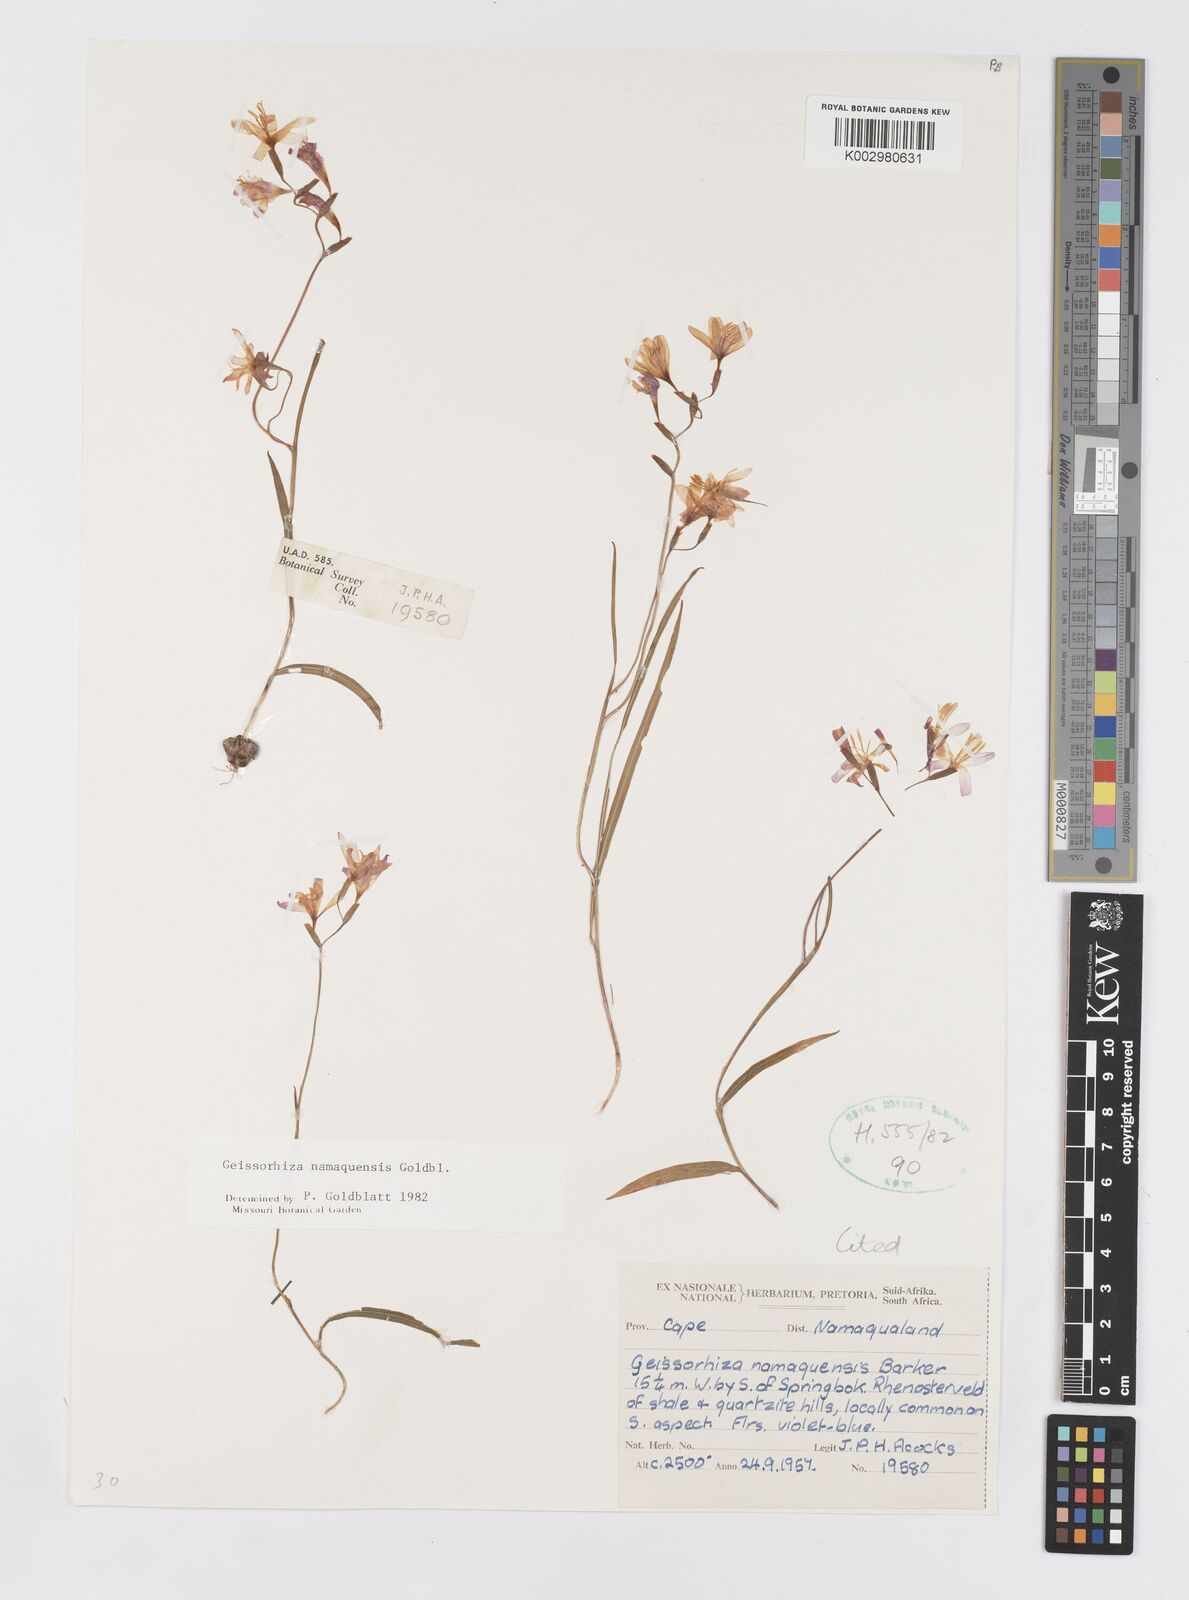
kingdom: Plantae
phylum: Tracheophyta
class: Liliopsida
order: Asparagales
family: Iridaceae
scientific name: Iridaceae
